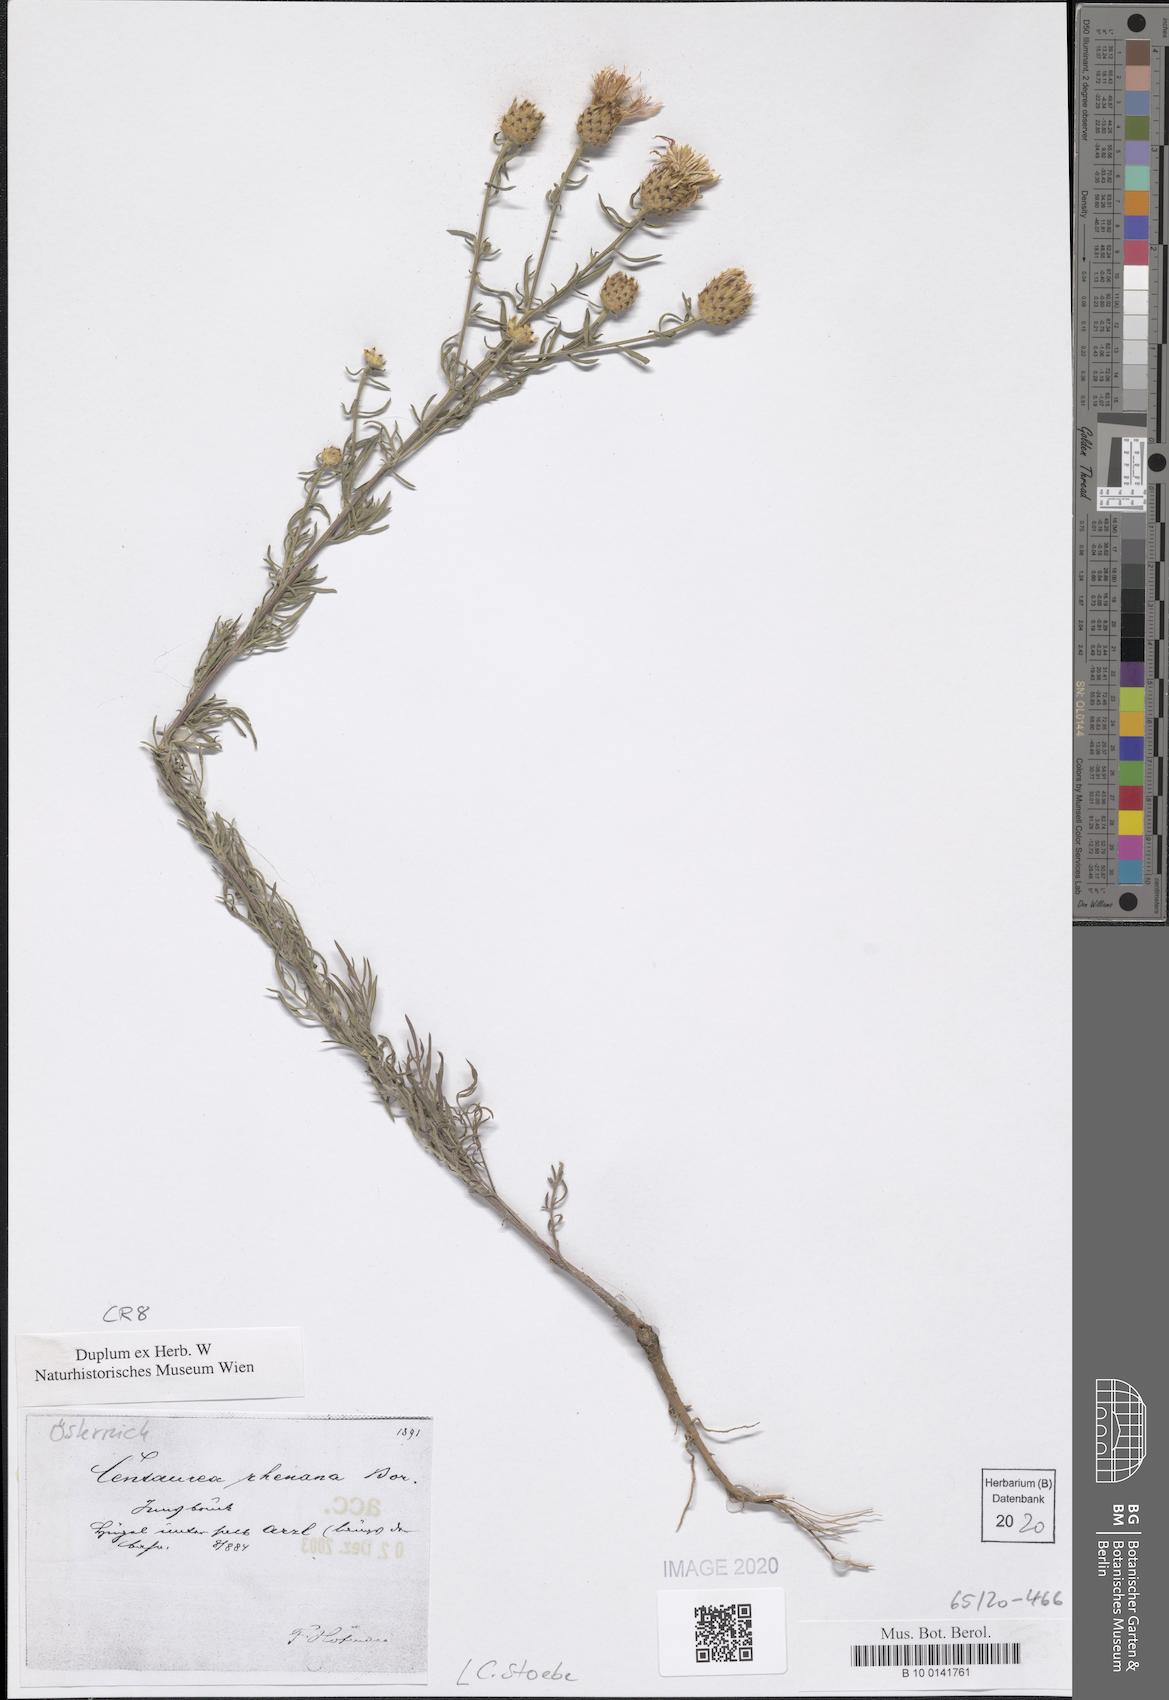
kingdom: Plantae
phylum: Tracheophyta
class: Magnoliopsida
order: Asterales
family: Asteraceae
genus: Centaurea
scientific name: Centaurea stoebe
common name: Spotted knapweed
